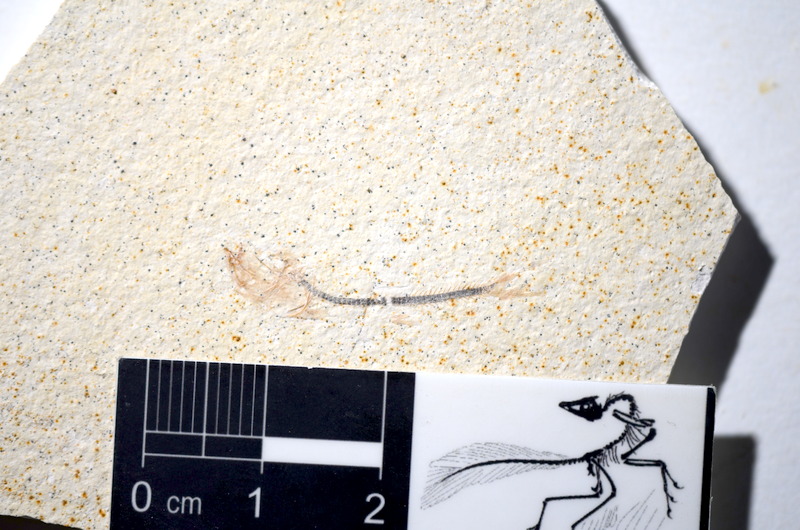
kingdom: Animalia
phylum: Chordata
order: Salmoniformes
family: Orthogonikleithridae
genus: Orthogonikleithrus
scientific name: Orthogonikleithrus hoelli
